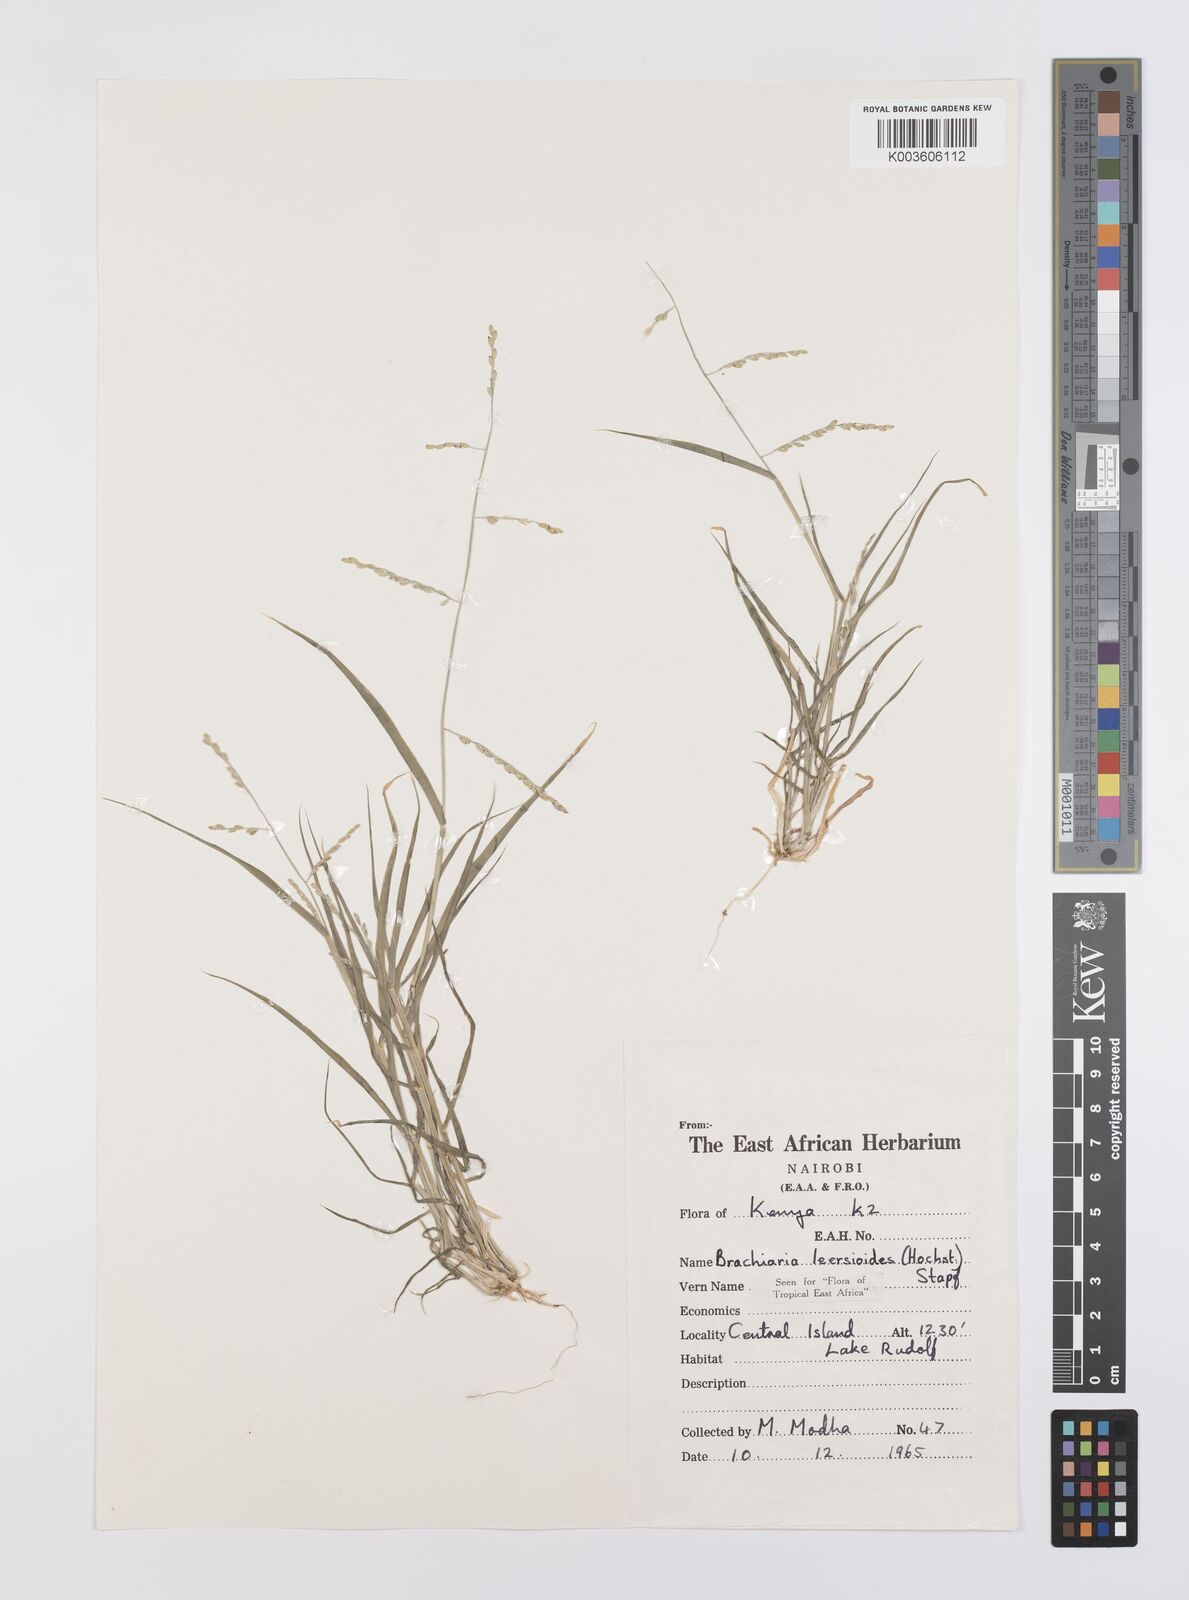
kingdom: Plantae
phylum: Tracheophyta
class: Liliopsida
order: Poales
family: Poaceae
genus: Urochloa
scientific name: Urochloa leersioides
